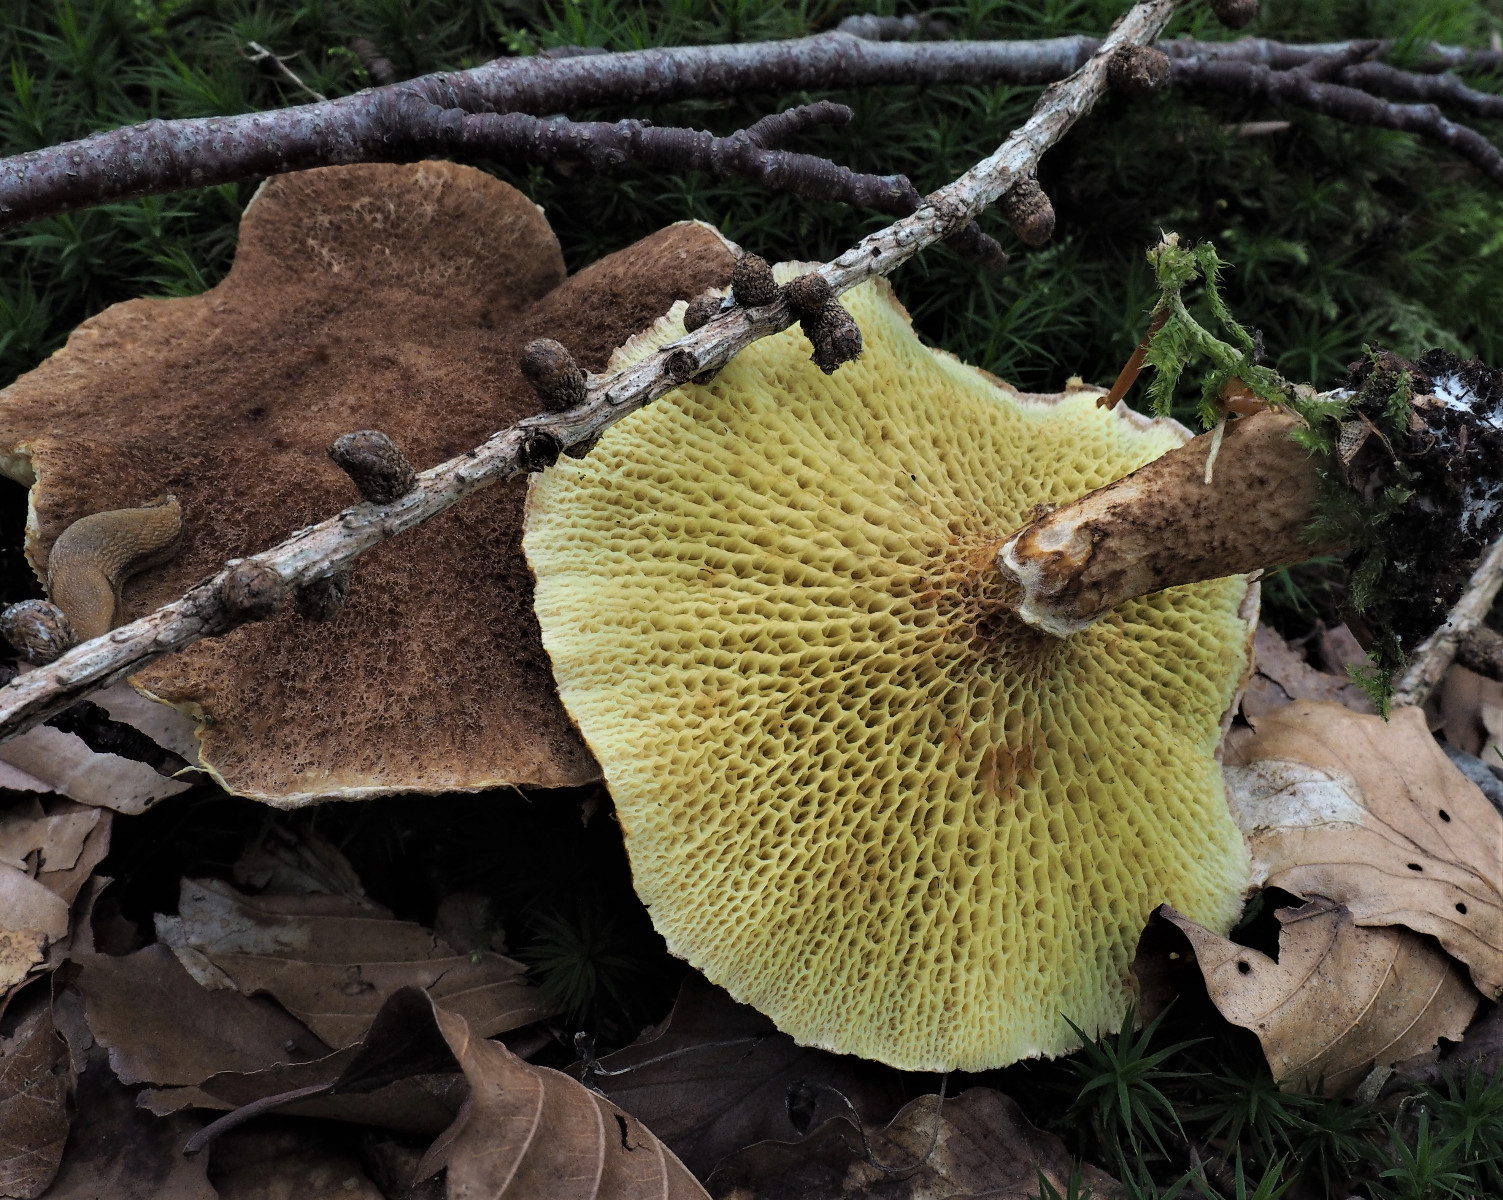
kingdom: Fungi
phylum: Basidiomycota
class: Agaricomycetes
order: Boletales
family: Suillaceae
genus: Suillus
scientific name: Suillus cavipes
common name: hulstokket slimrørhat
